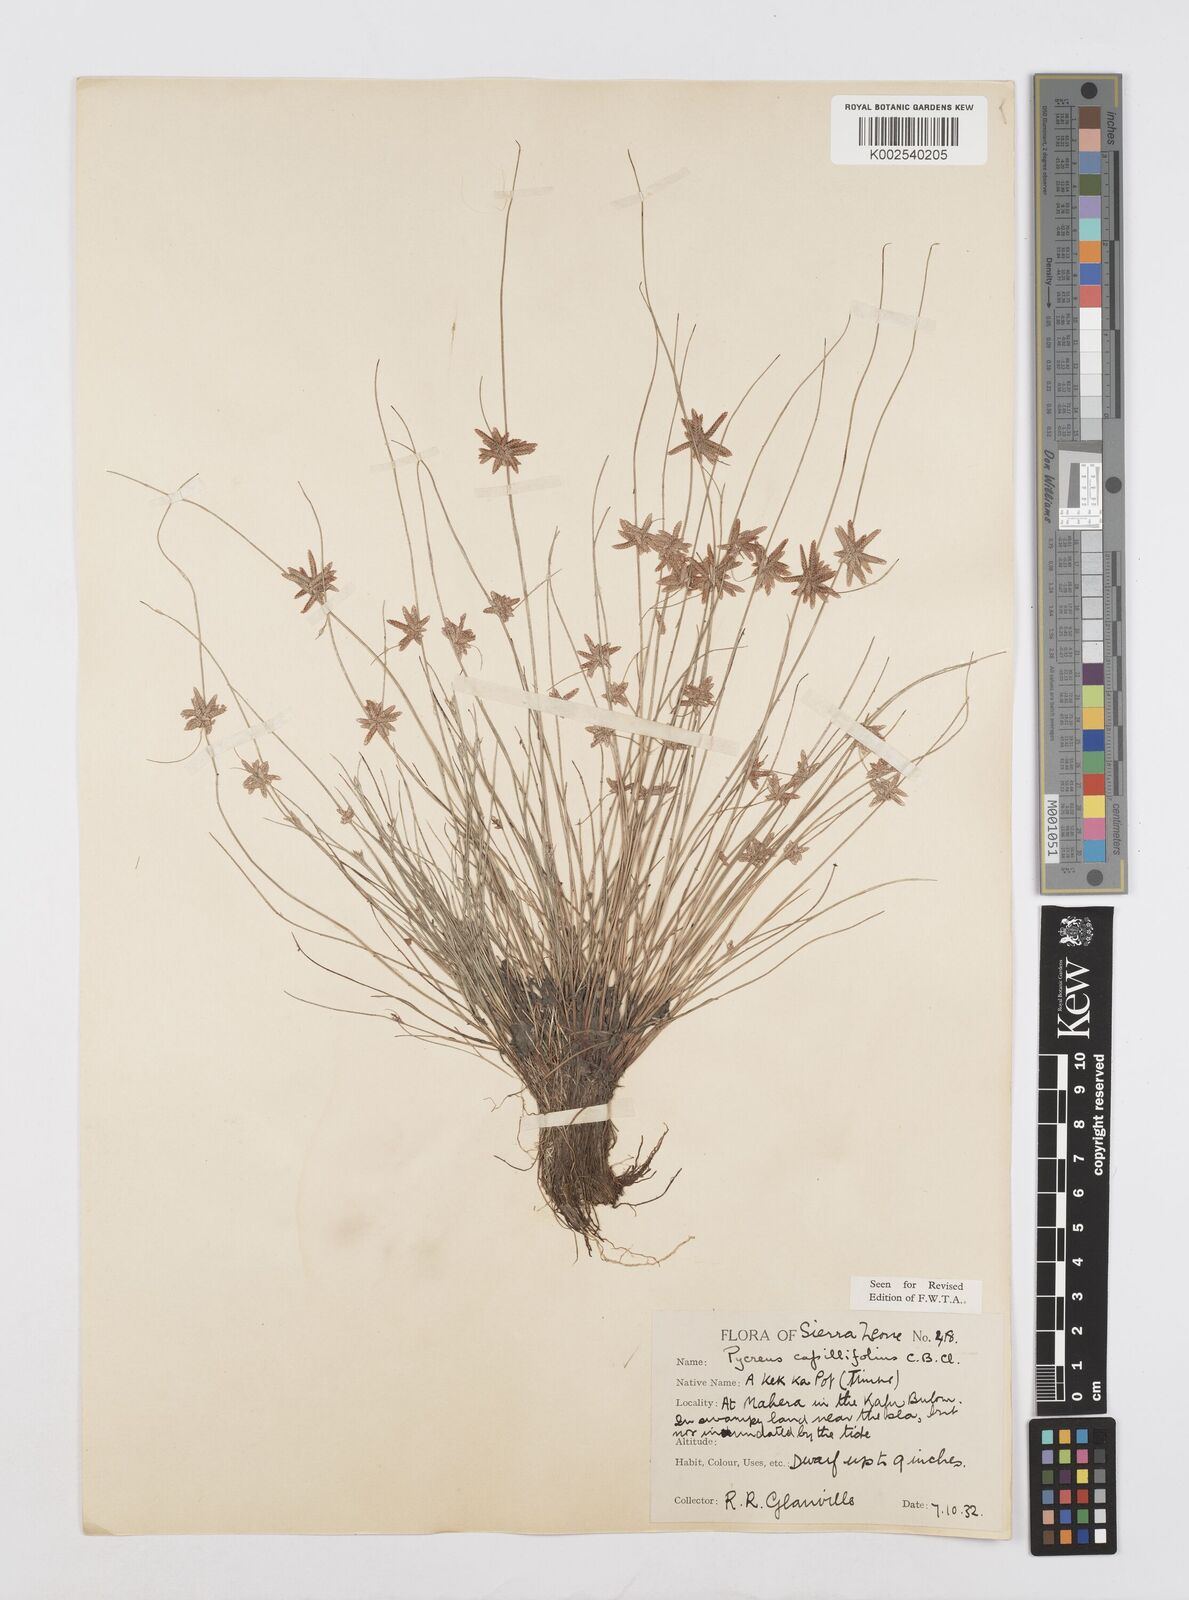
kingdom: Plantae
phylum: Tracheophyta
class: Liliopsida
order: Poales
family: Cyperaceae
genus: Cyperus
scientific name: Cyperus capillifolius
